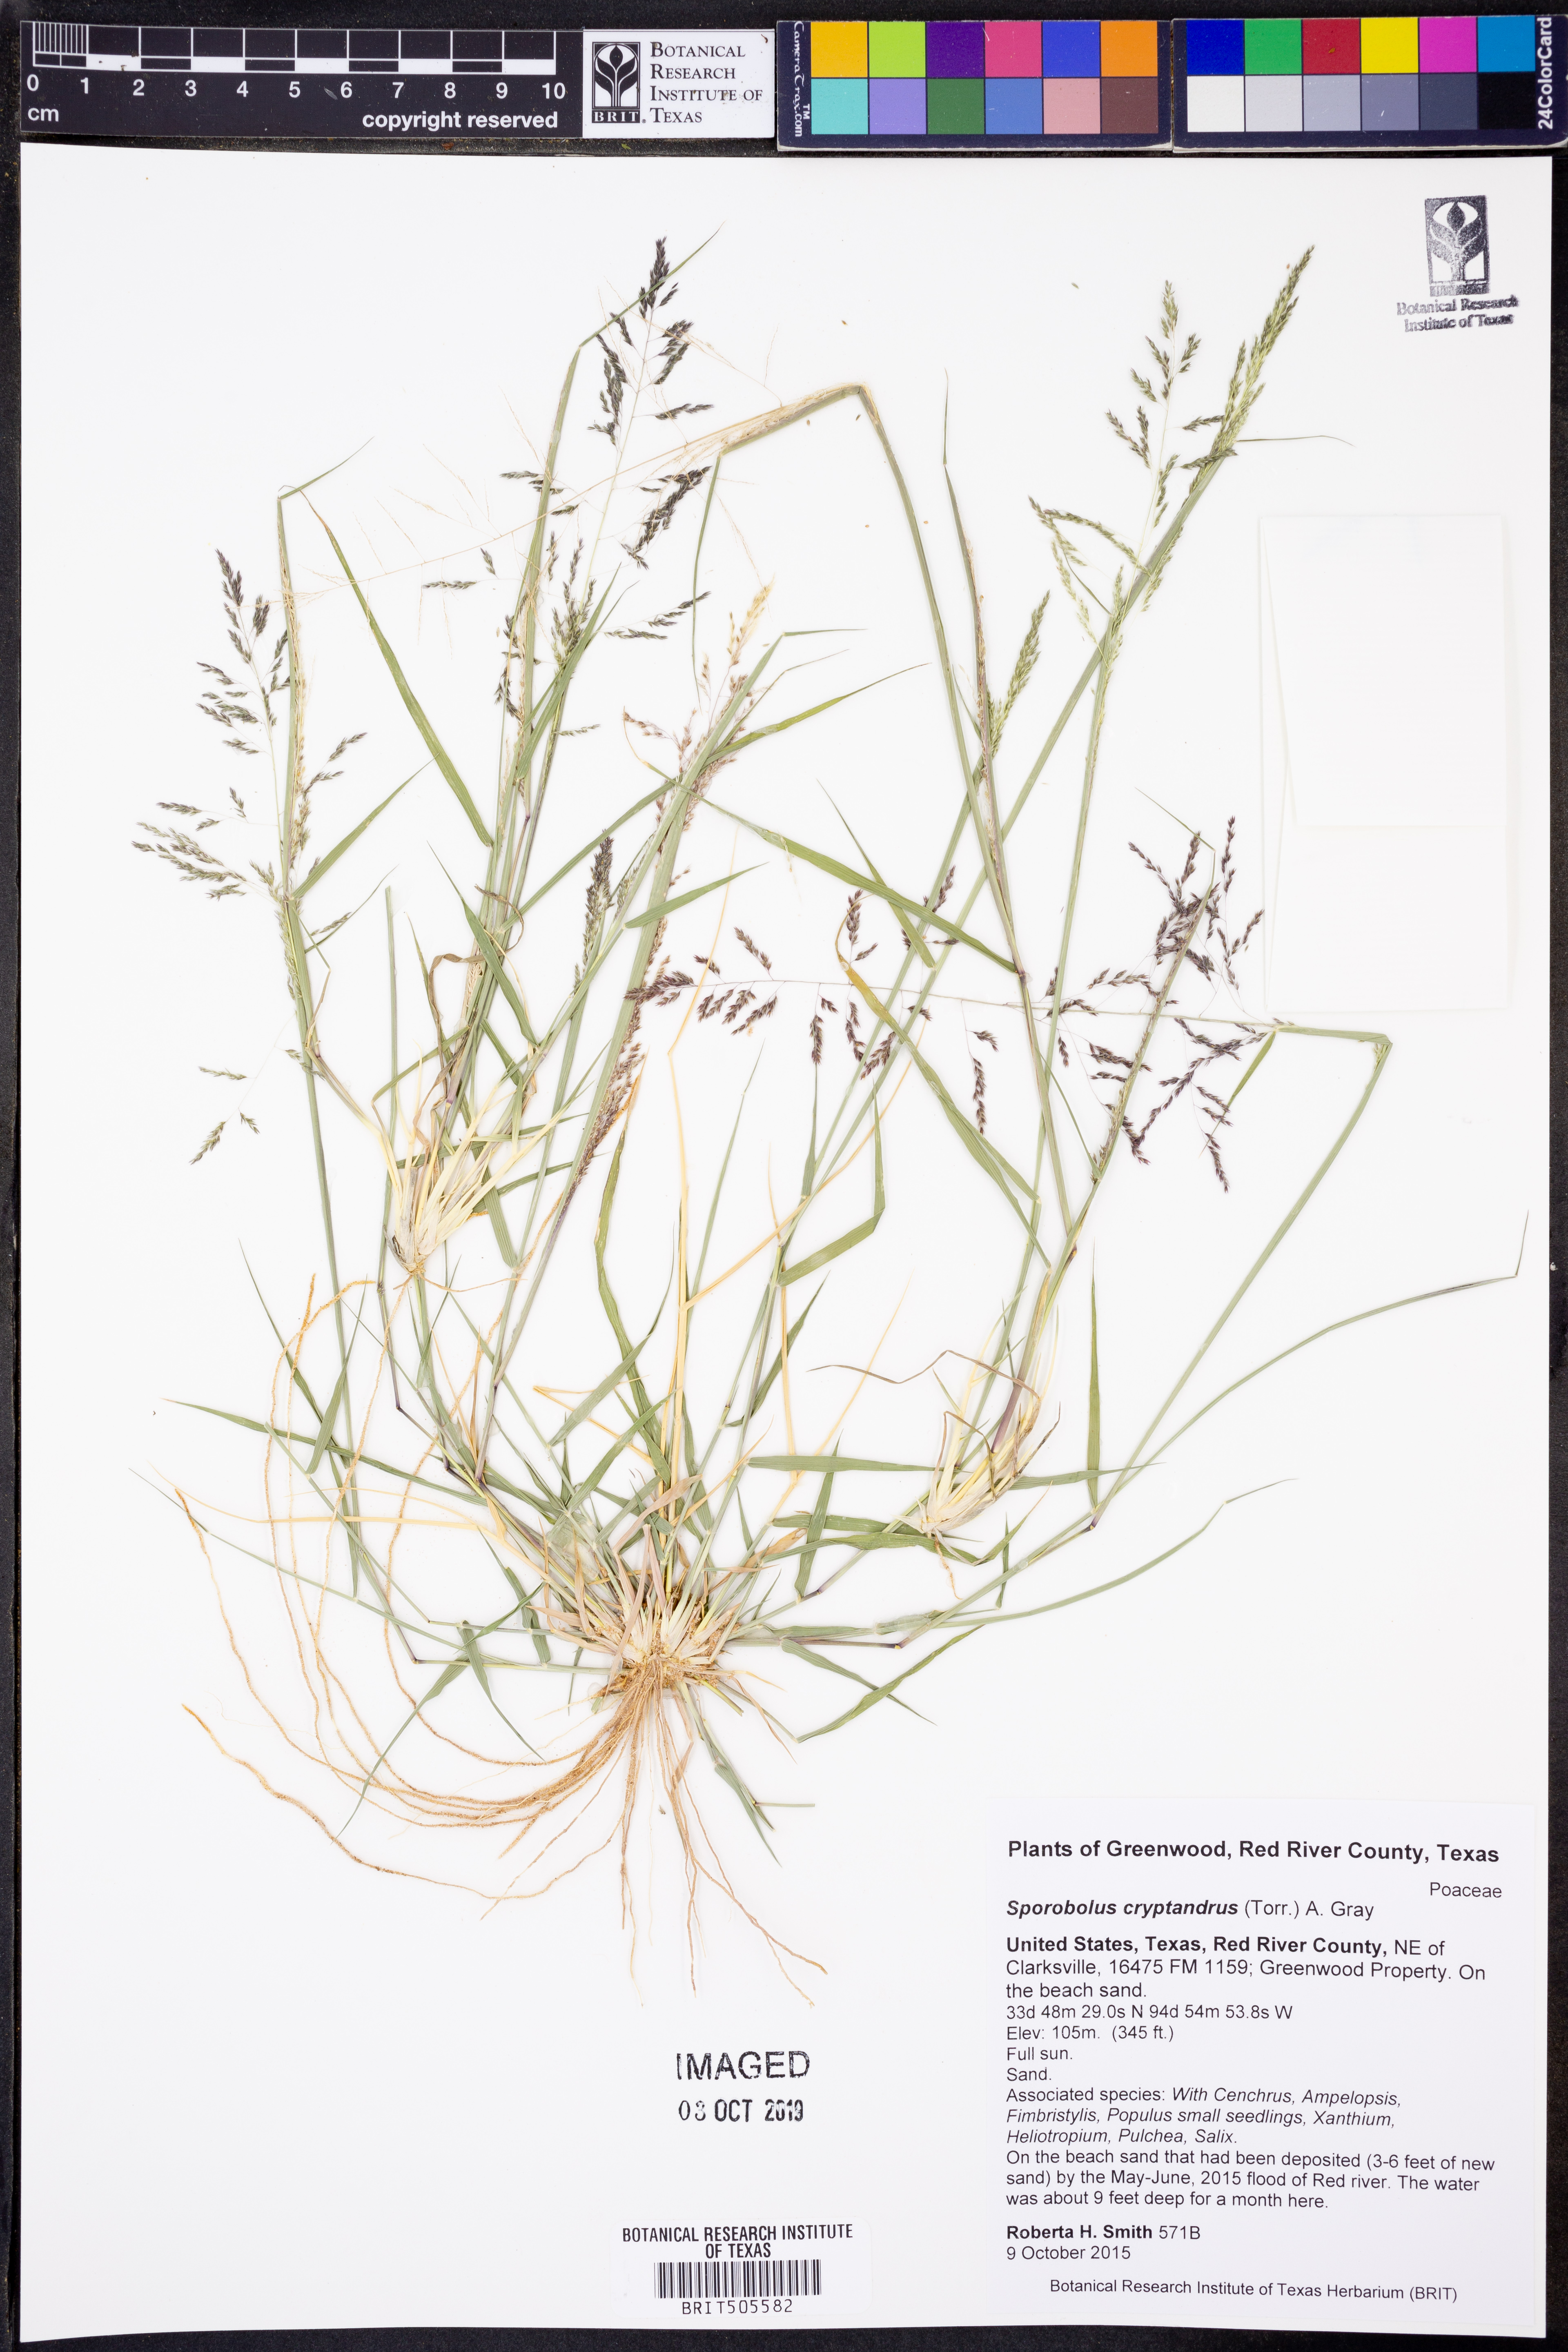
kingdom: Plantae
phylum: Tracheophyta
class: Liliopsida
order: Poales
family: Poaceae
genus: Sporobolus
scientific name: Sporobolus cryptandrus
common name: Sand dropseed
